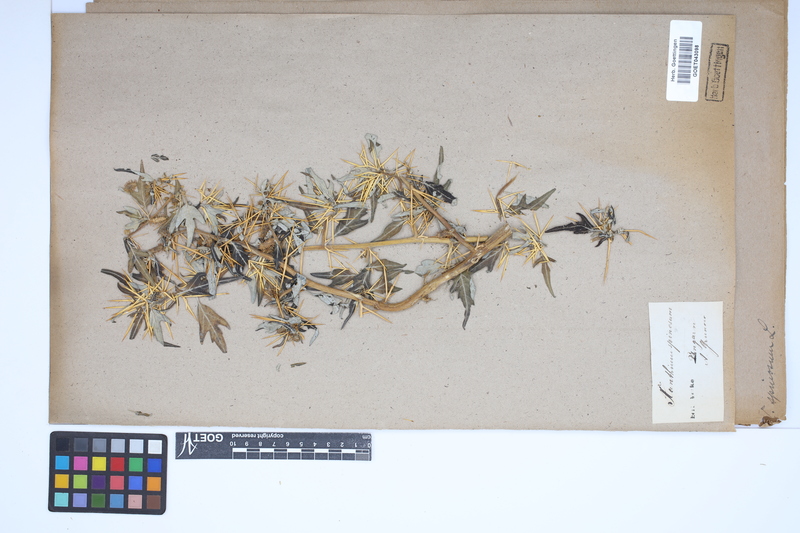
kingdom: Plantae
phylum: Tracheophyta
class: Magnoliopsida
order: Asterales
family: Asteraceae
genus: Xanthium
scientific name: Xanthium spinosum
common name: Spiny cocklebur
